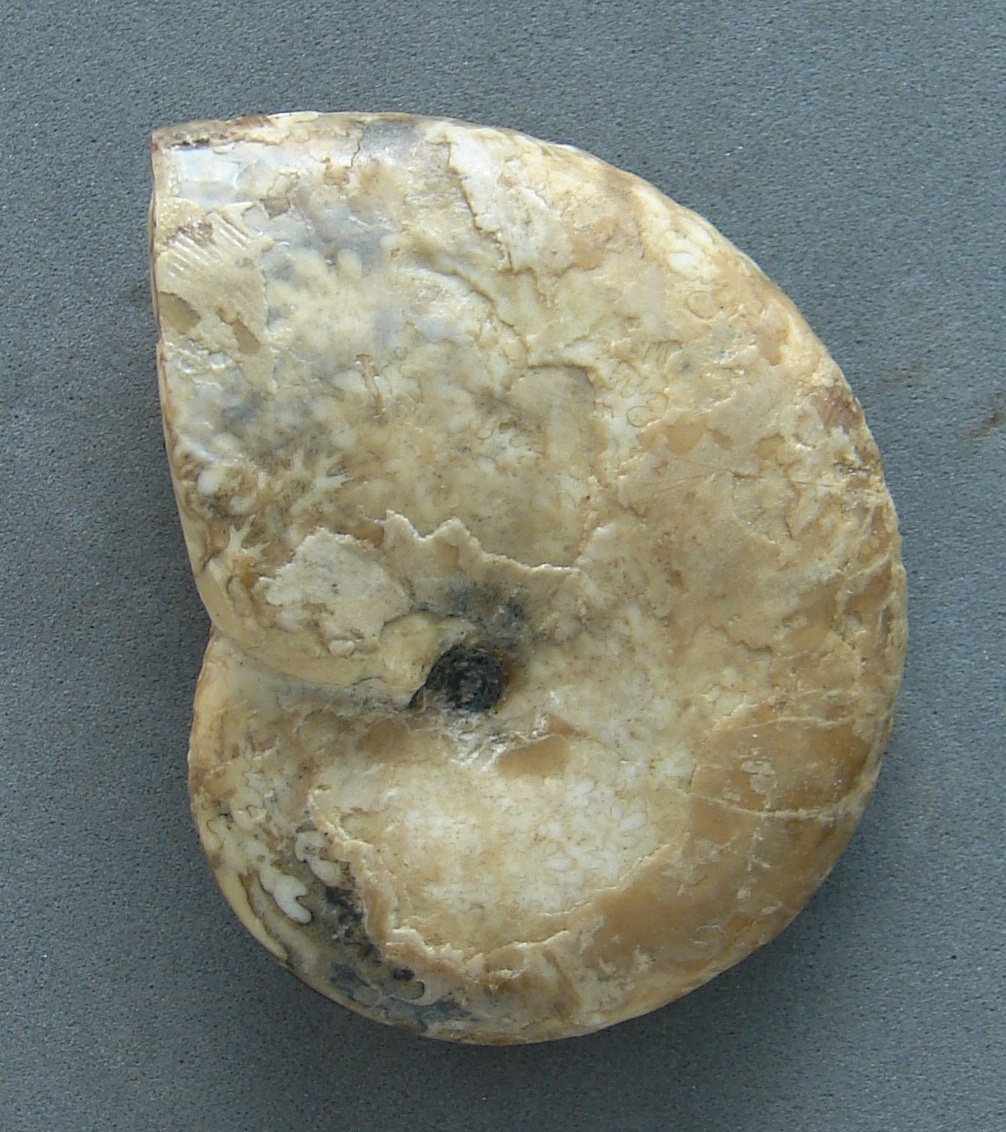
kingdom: Animalia
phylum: Mollusca
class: Cephalopoda
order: Phylloceratida
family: Phylloceratidae
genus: Phylloceras
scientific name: Phylloceras heterophyllum
